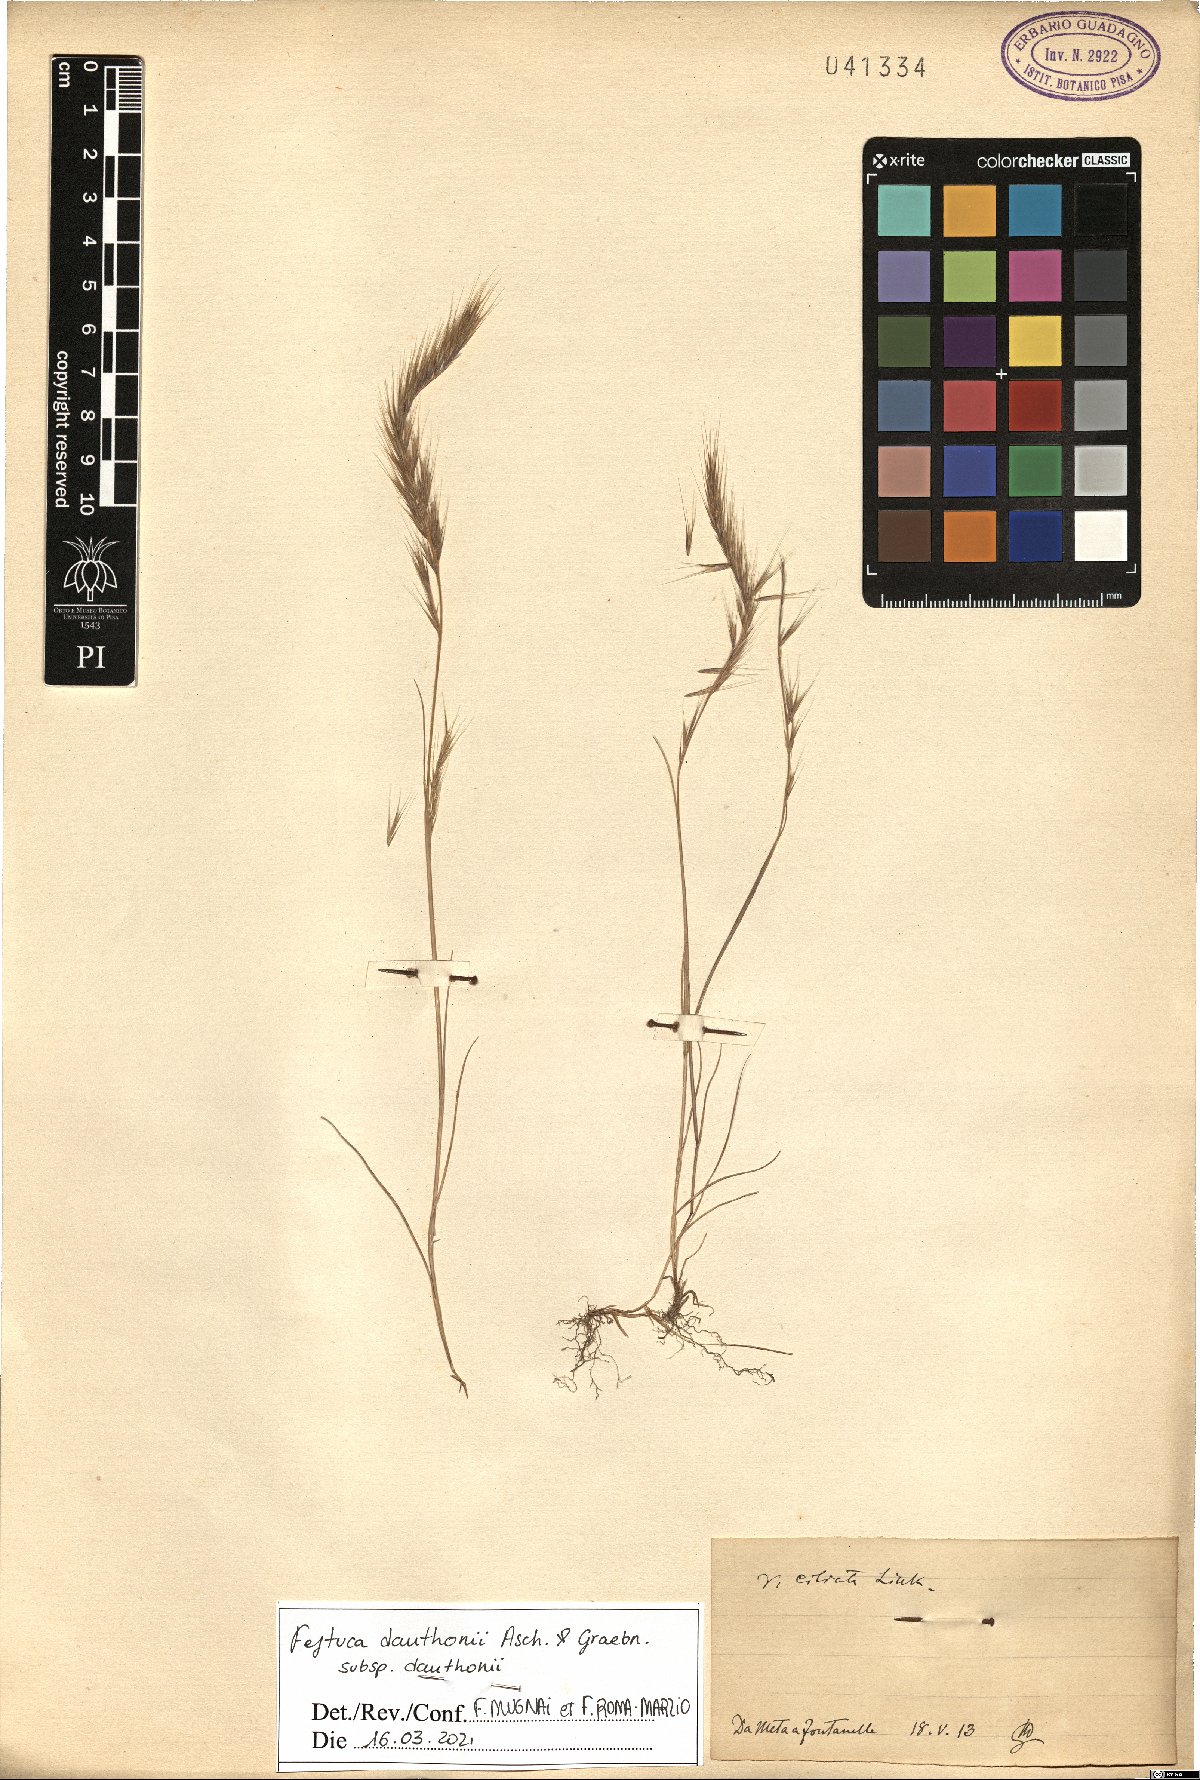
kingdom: Plantae
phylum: Tracheophyta
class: Liliopsida
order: Poales
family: Poaceae
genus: Festuca
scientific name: Festuca ambigua
